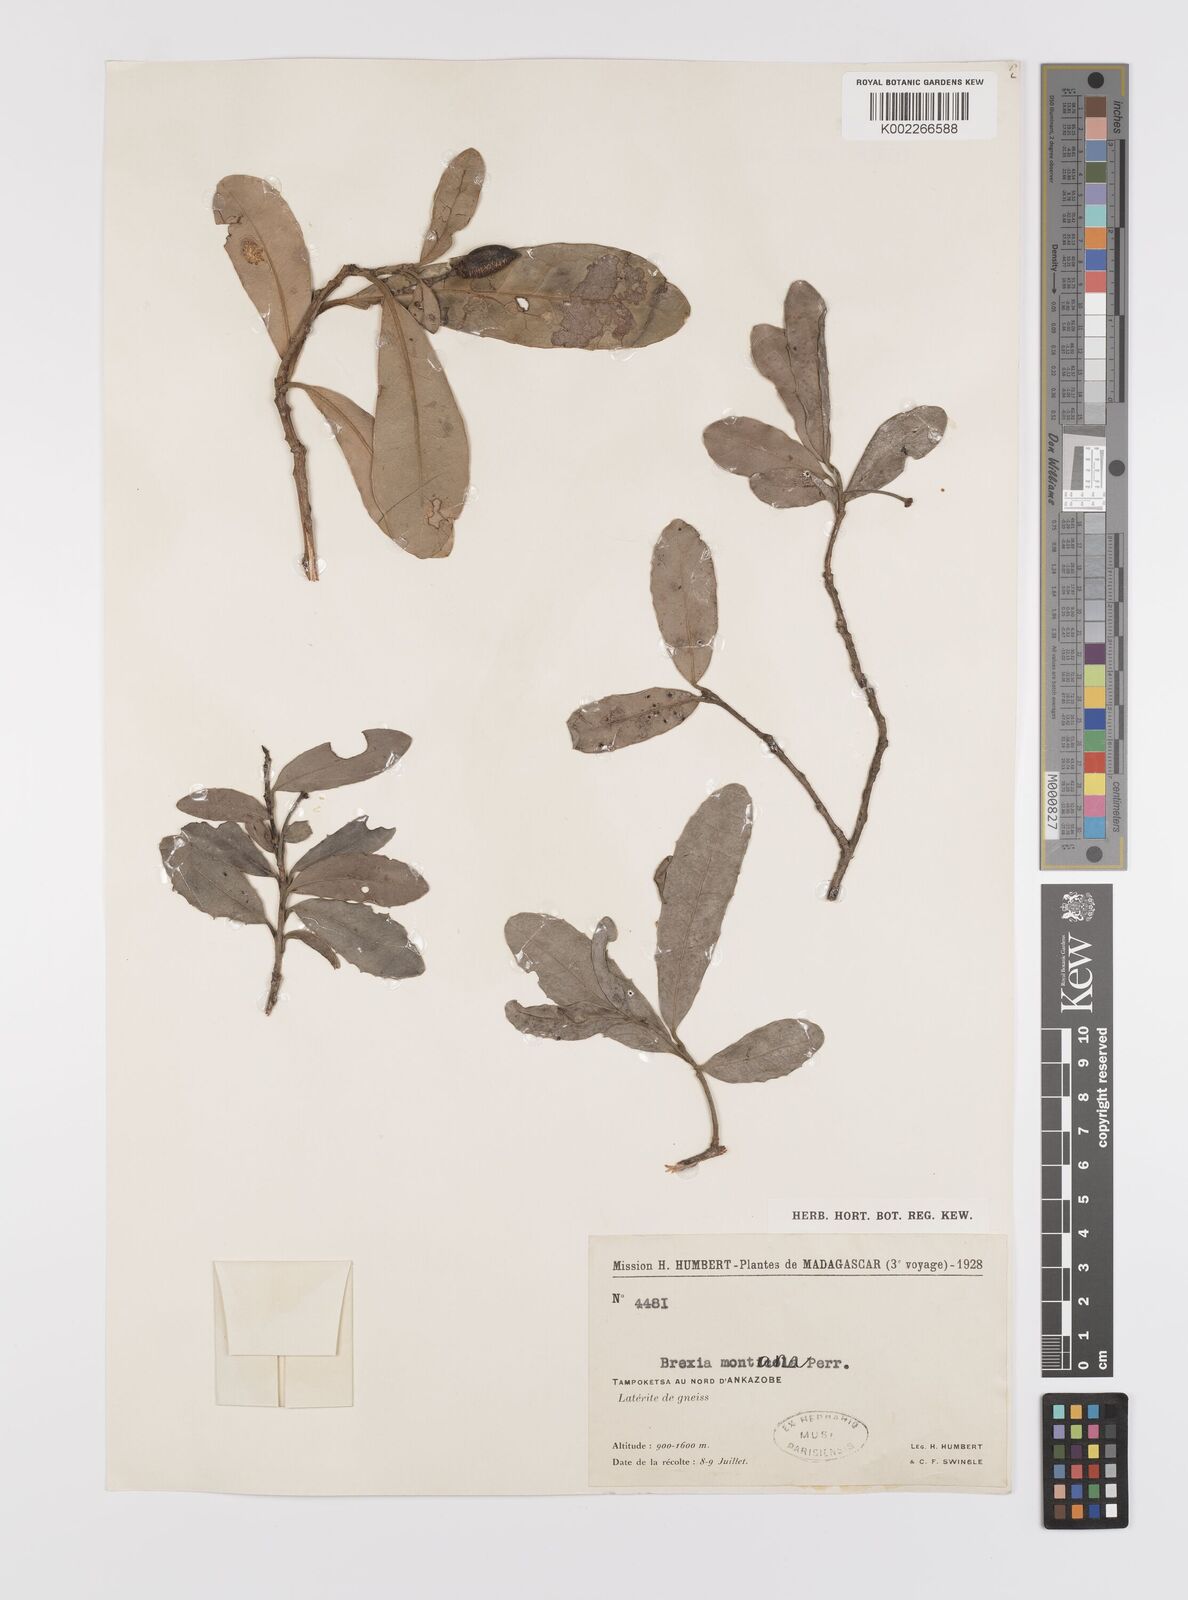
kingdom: Plantae
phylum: Tracheophyta
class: Magnoliopsida
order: Celastrales
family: Celastraceae
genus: Brexia
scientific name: Brexia montana
